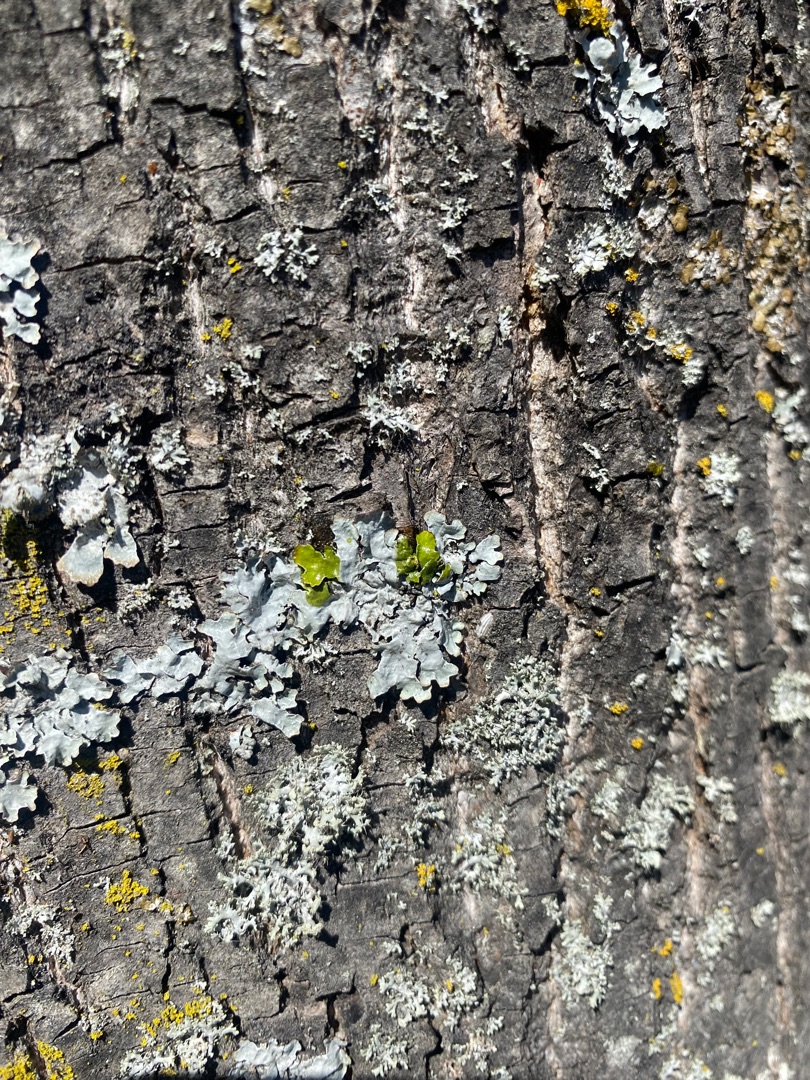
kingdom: Fungi
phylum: Ascomycota
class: Lecanoromycetes
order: Lecanorales
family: Parmeliaceae
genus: Parmelia
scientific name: Parmelia sulcata
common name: Rynket skållav
